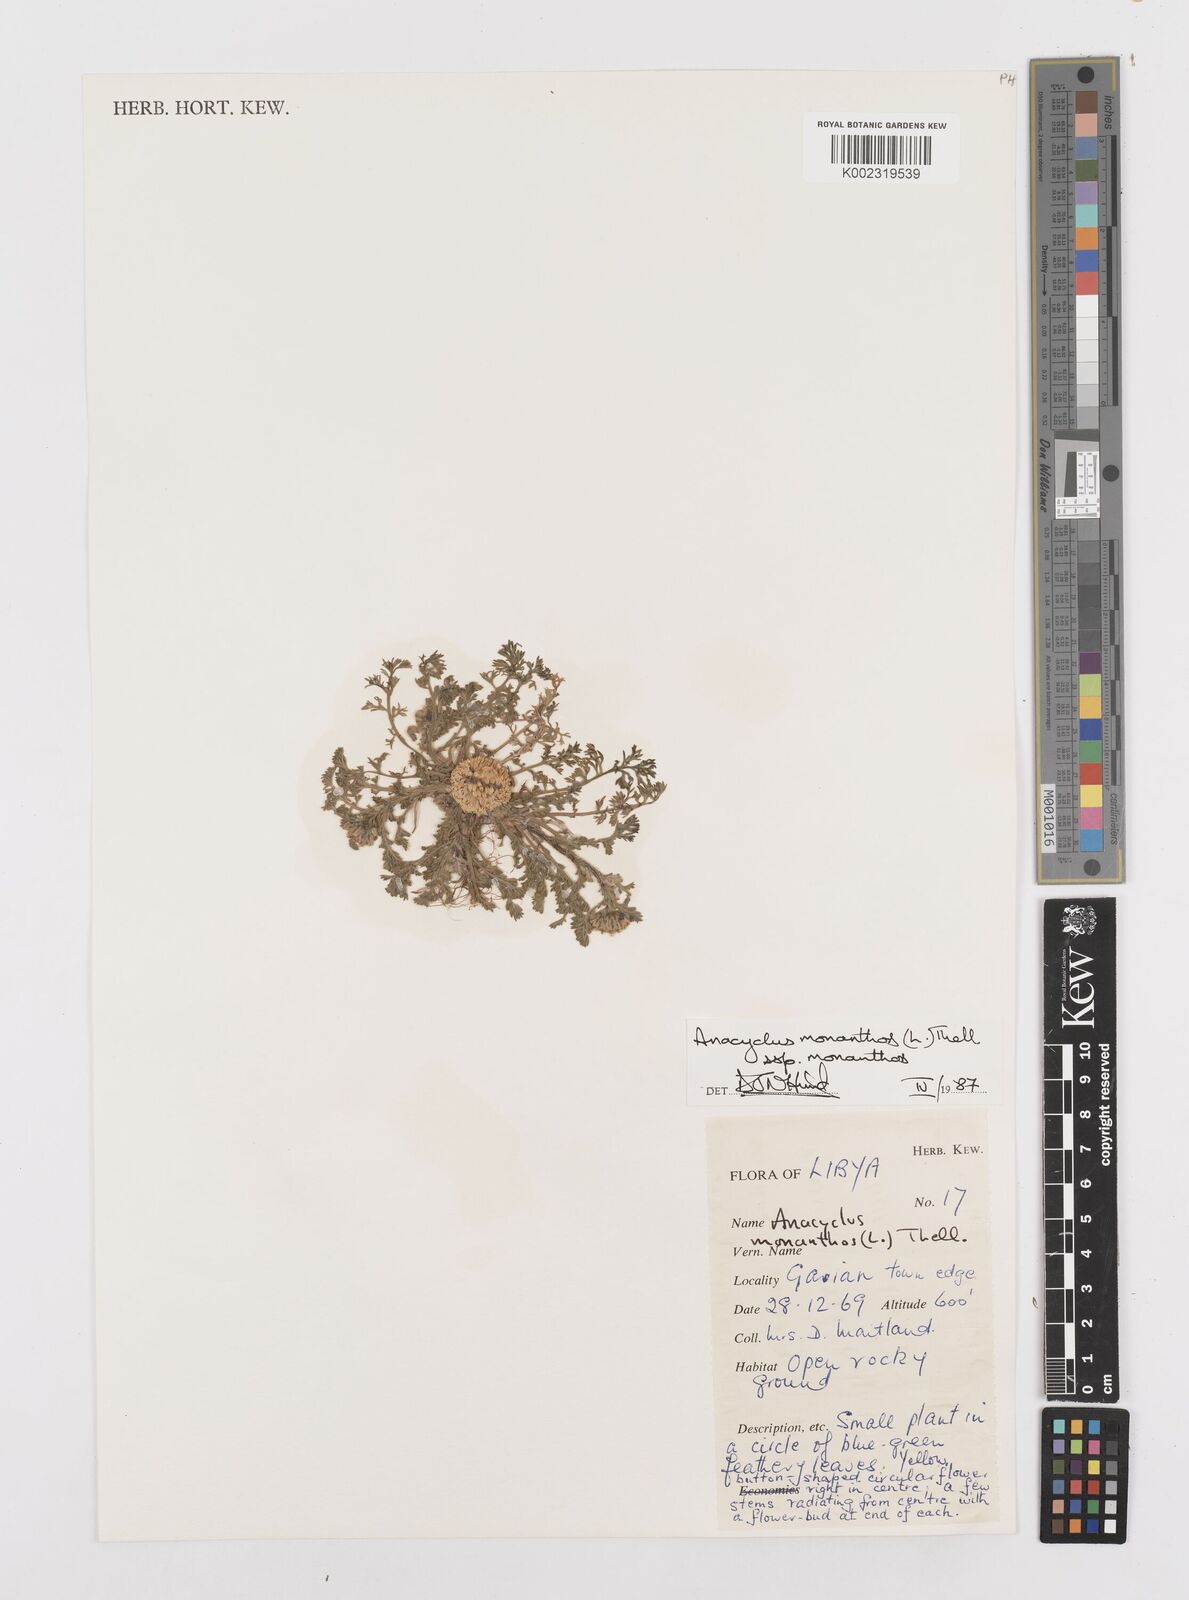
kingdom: Plantae
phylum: Tracheophyta
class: Magnoliopsida
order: Asterales
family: Asteraceae
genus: Anacyclus
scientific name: Anacyclus monanthos
